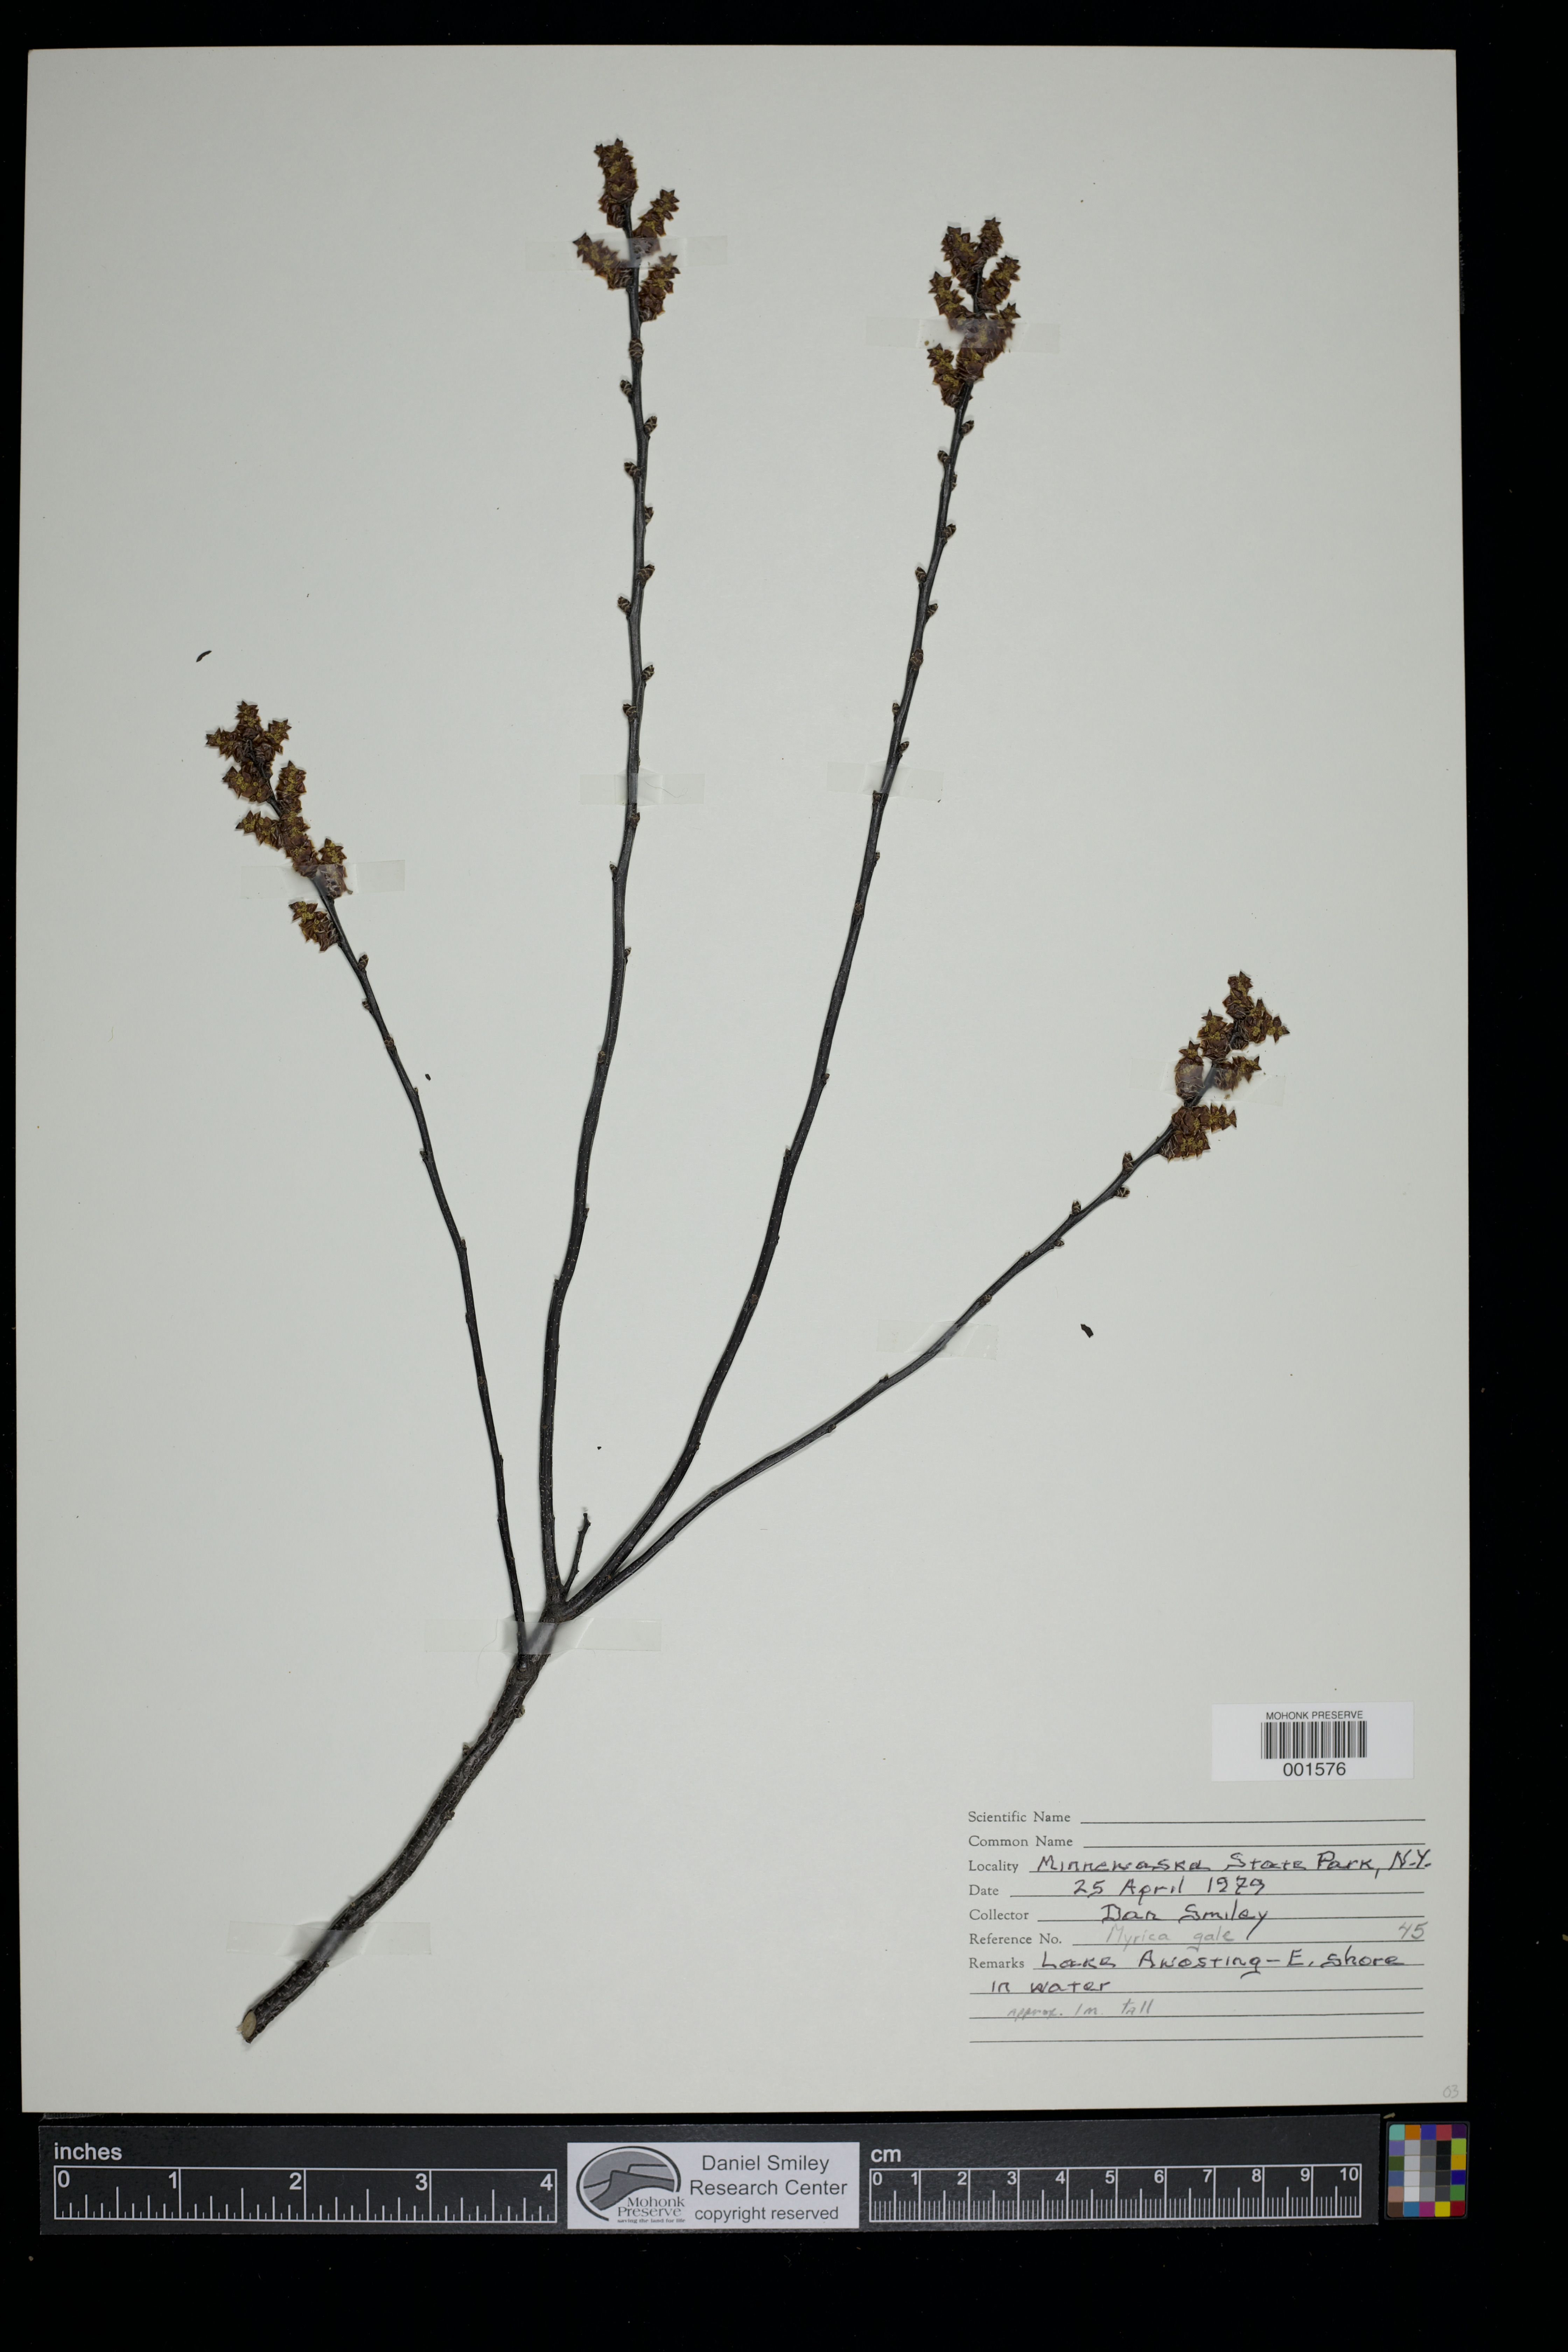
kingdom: Plantae
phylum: Tracheophyta
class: Magnoliopsida
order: Fagales
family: Myricaceae
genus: Myrica
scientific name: Myrica gale
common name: Sweet gale
